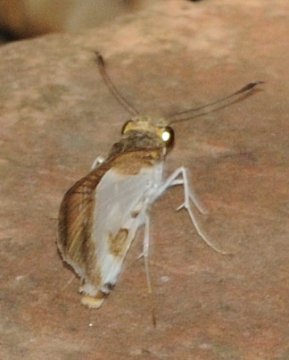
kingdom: Animalia
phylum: Arthropoda
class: Insecta
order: Lepidoptera
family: Hesperiidae
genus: Andronymus
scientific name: Andronymus caesar
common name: White Dart
